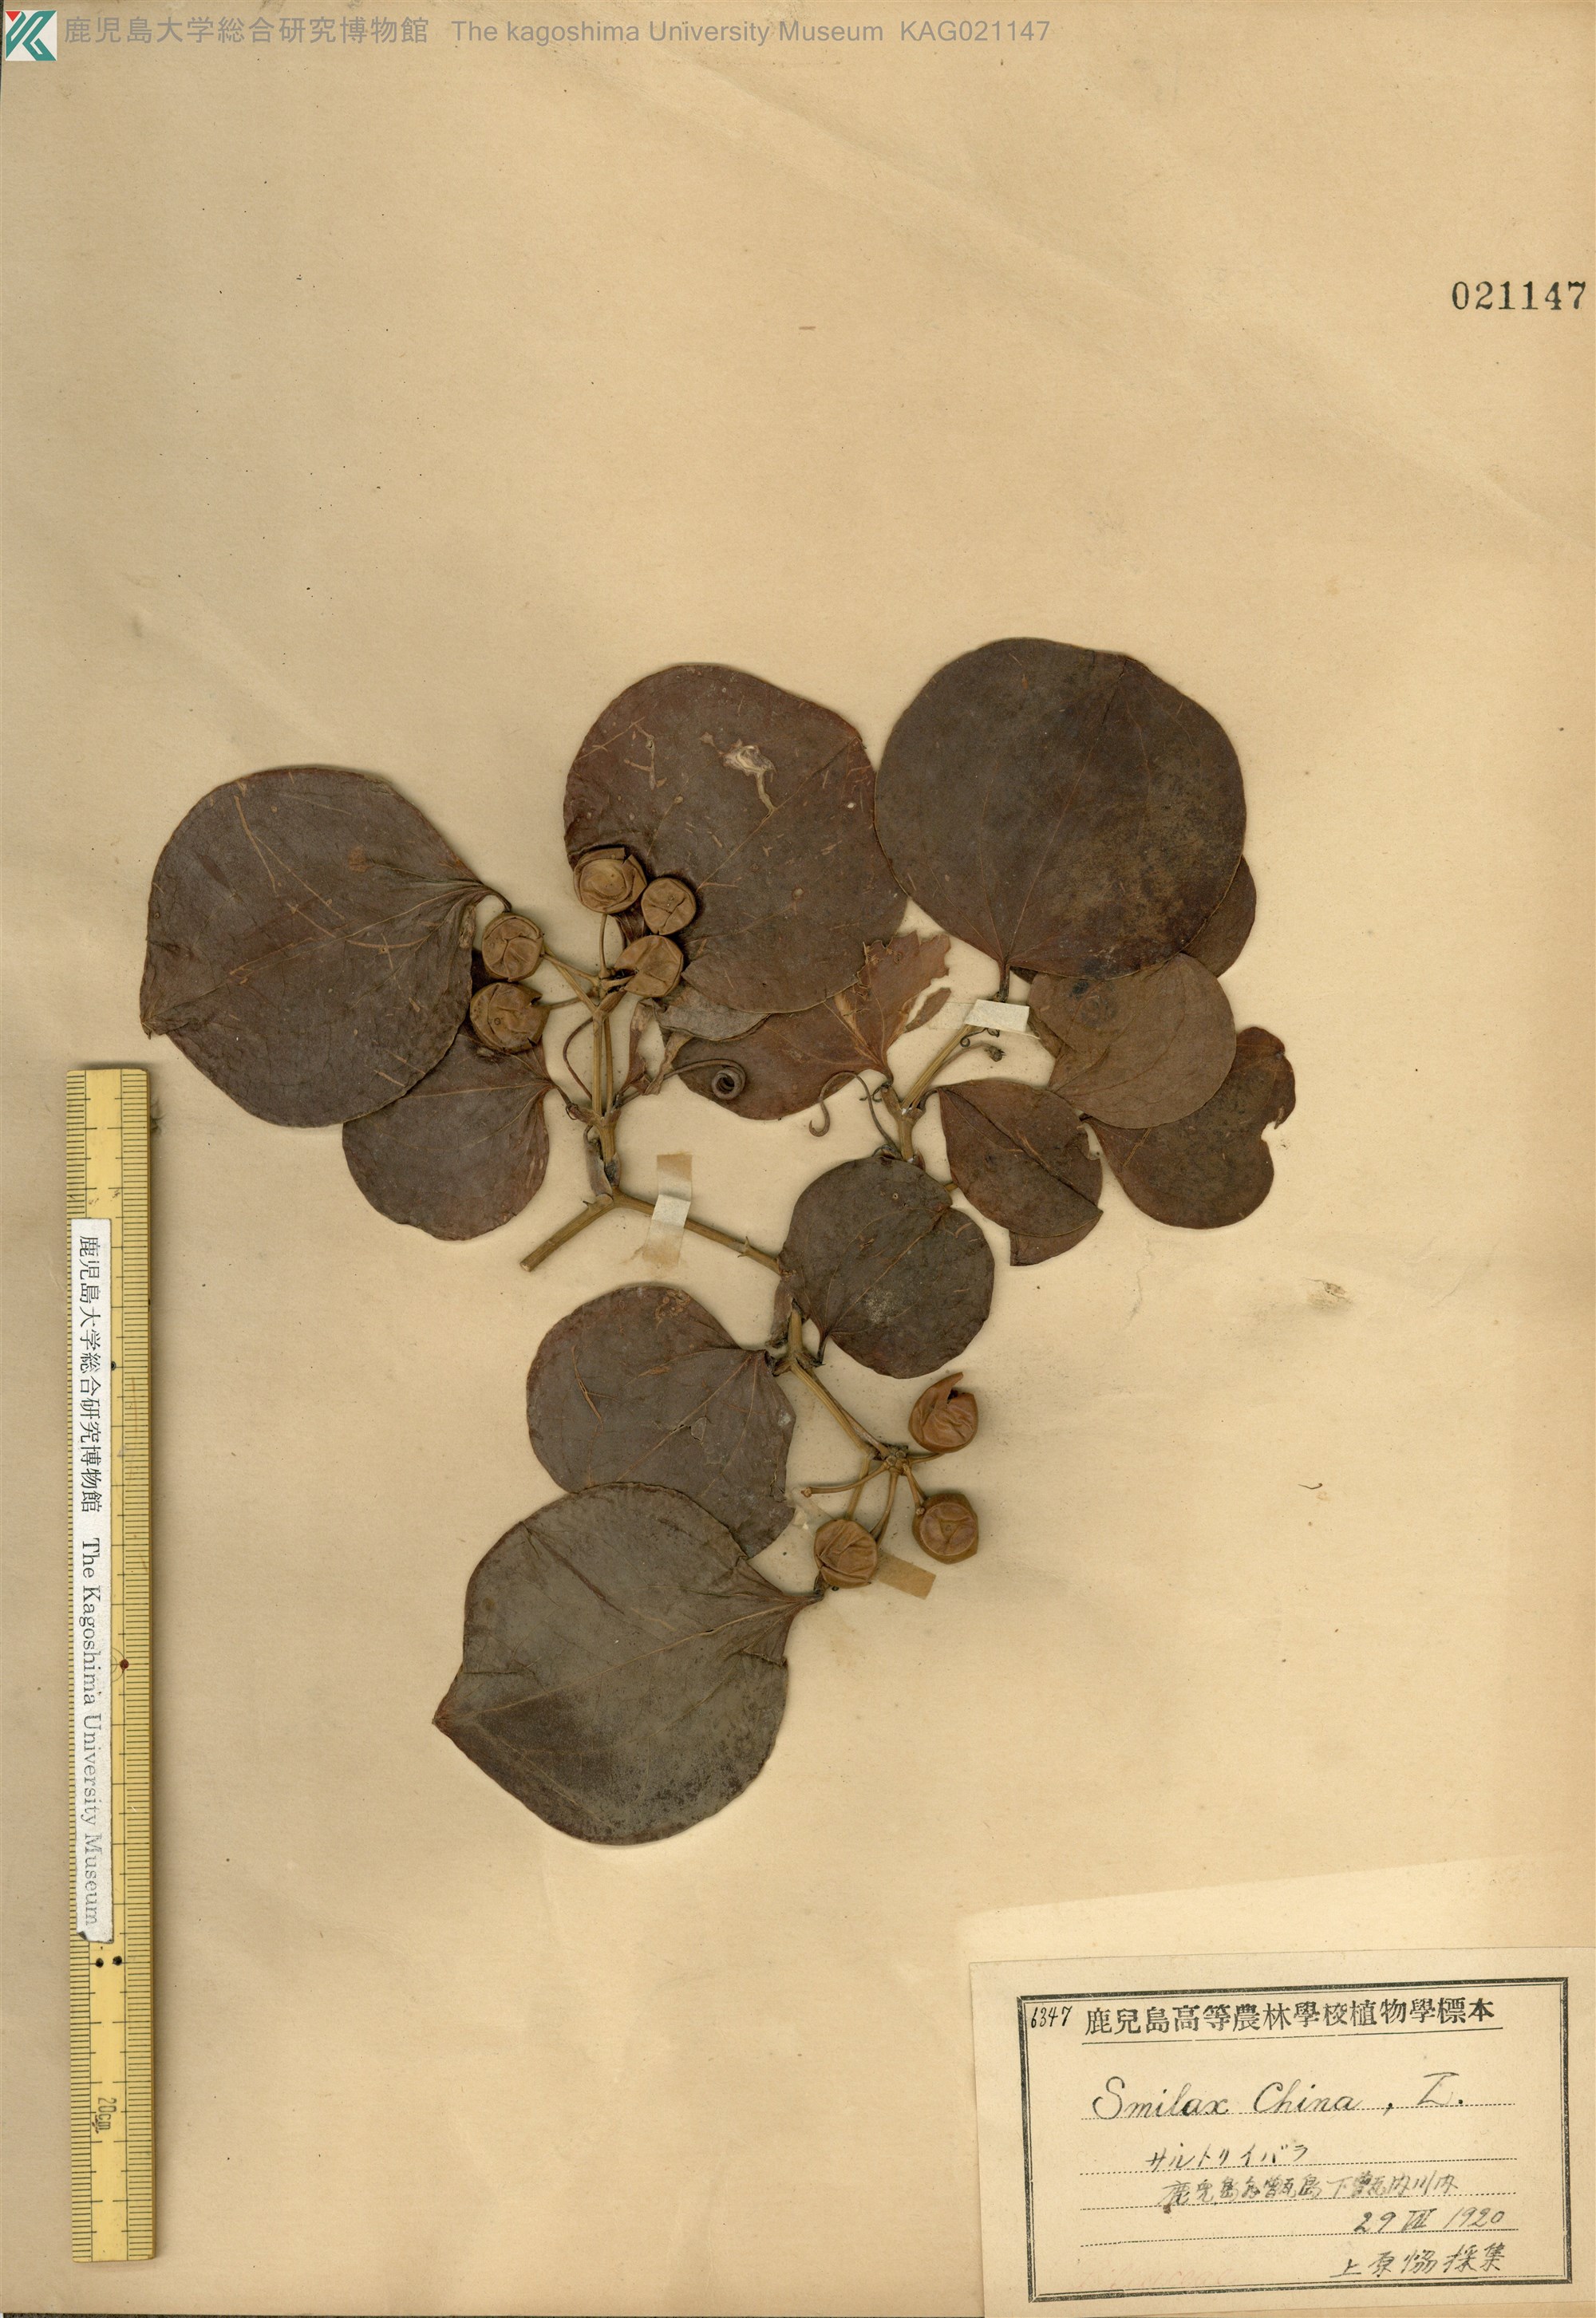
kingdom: Plantae
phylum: Tracheophyta
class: Liliopsida
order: Liliales
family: Smilacaceae
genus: Smilax
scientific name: Smilax china
